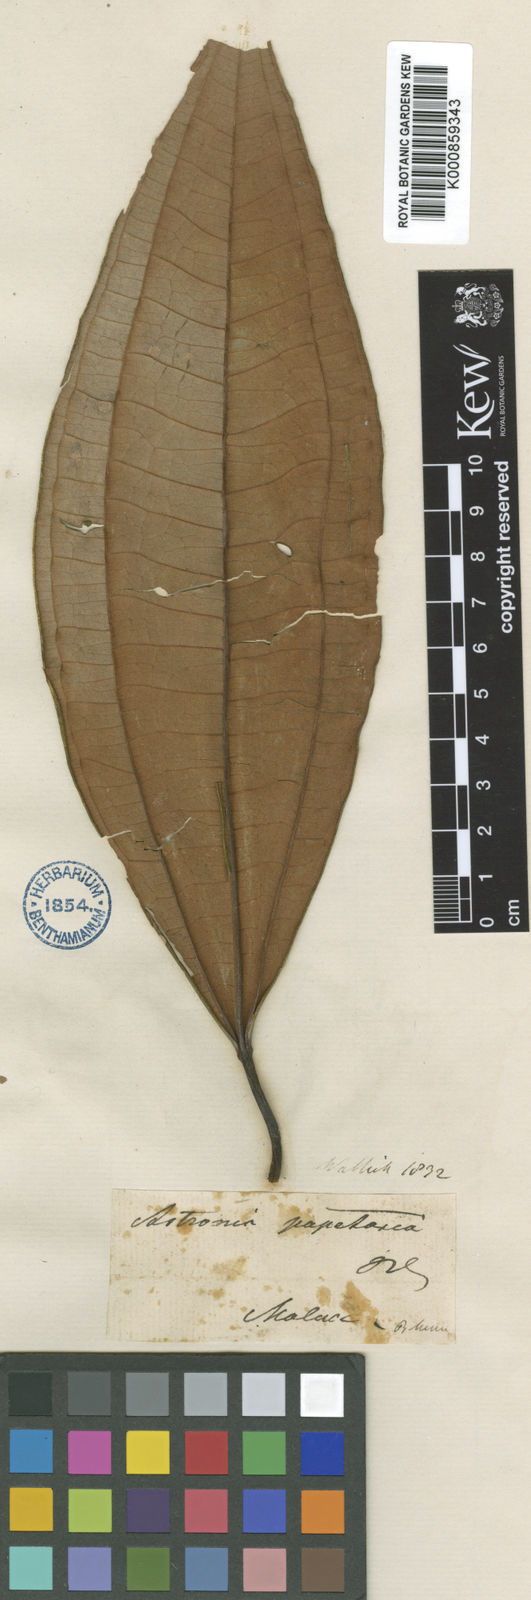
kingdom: Plantae
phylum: Tracheophyta
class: Magnoliopsida
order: Myrtales
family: Melastomataceae
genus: Astronia
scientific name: Astronia macrophylla
